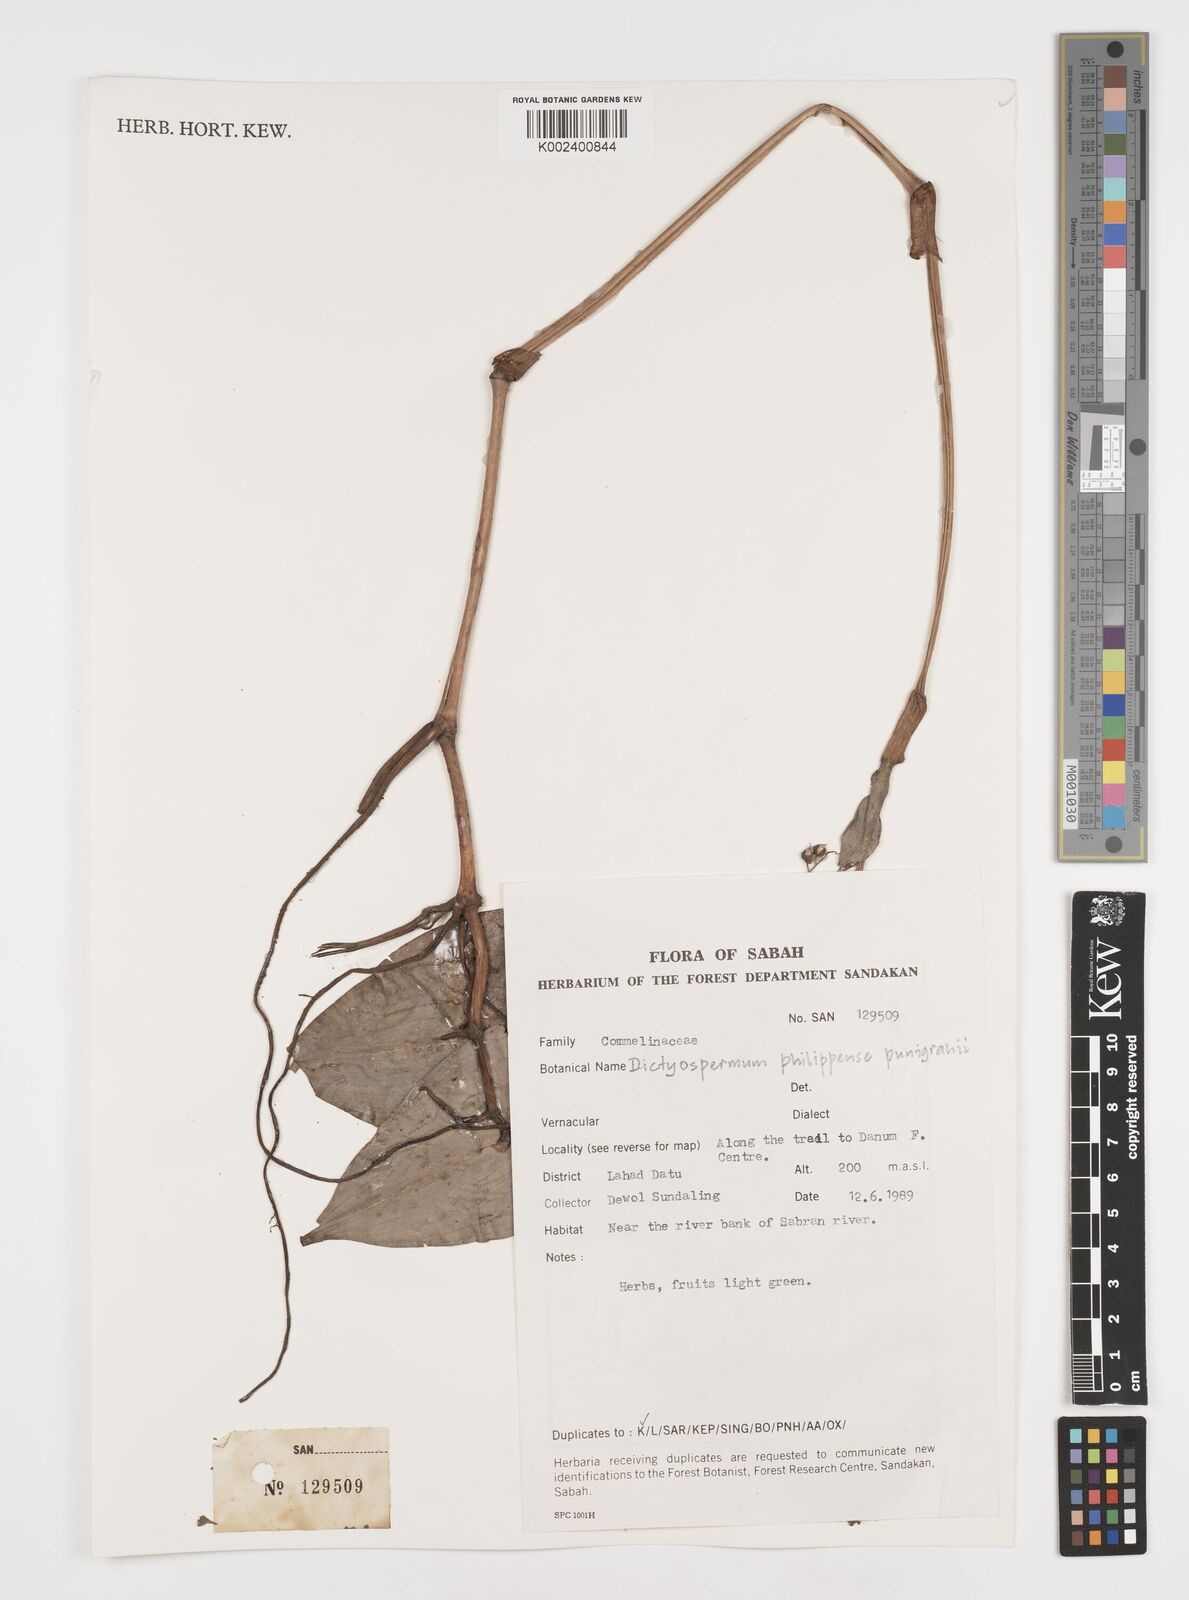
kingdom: Plantae
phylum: Tracheophyta
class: Liliopsida
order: Commelinales
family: Commelinaceae
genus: Tricarpelema
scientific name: Tricarpelema philippense
